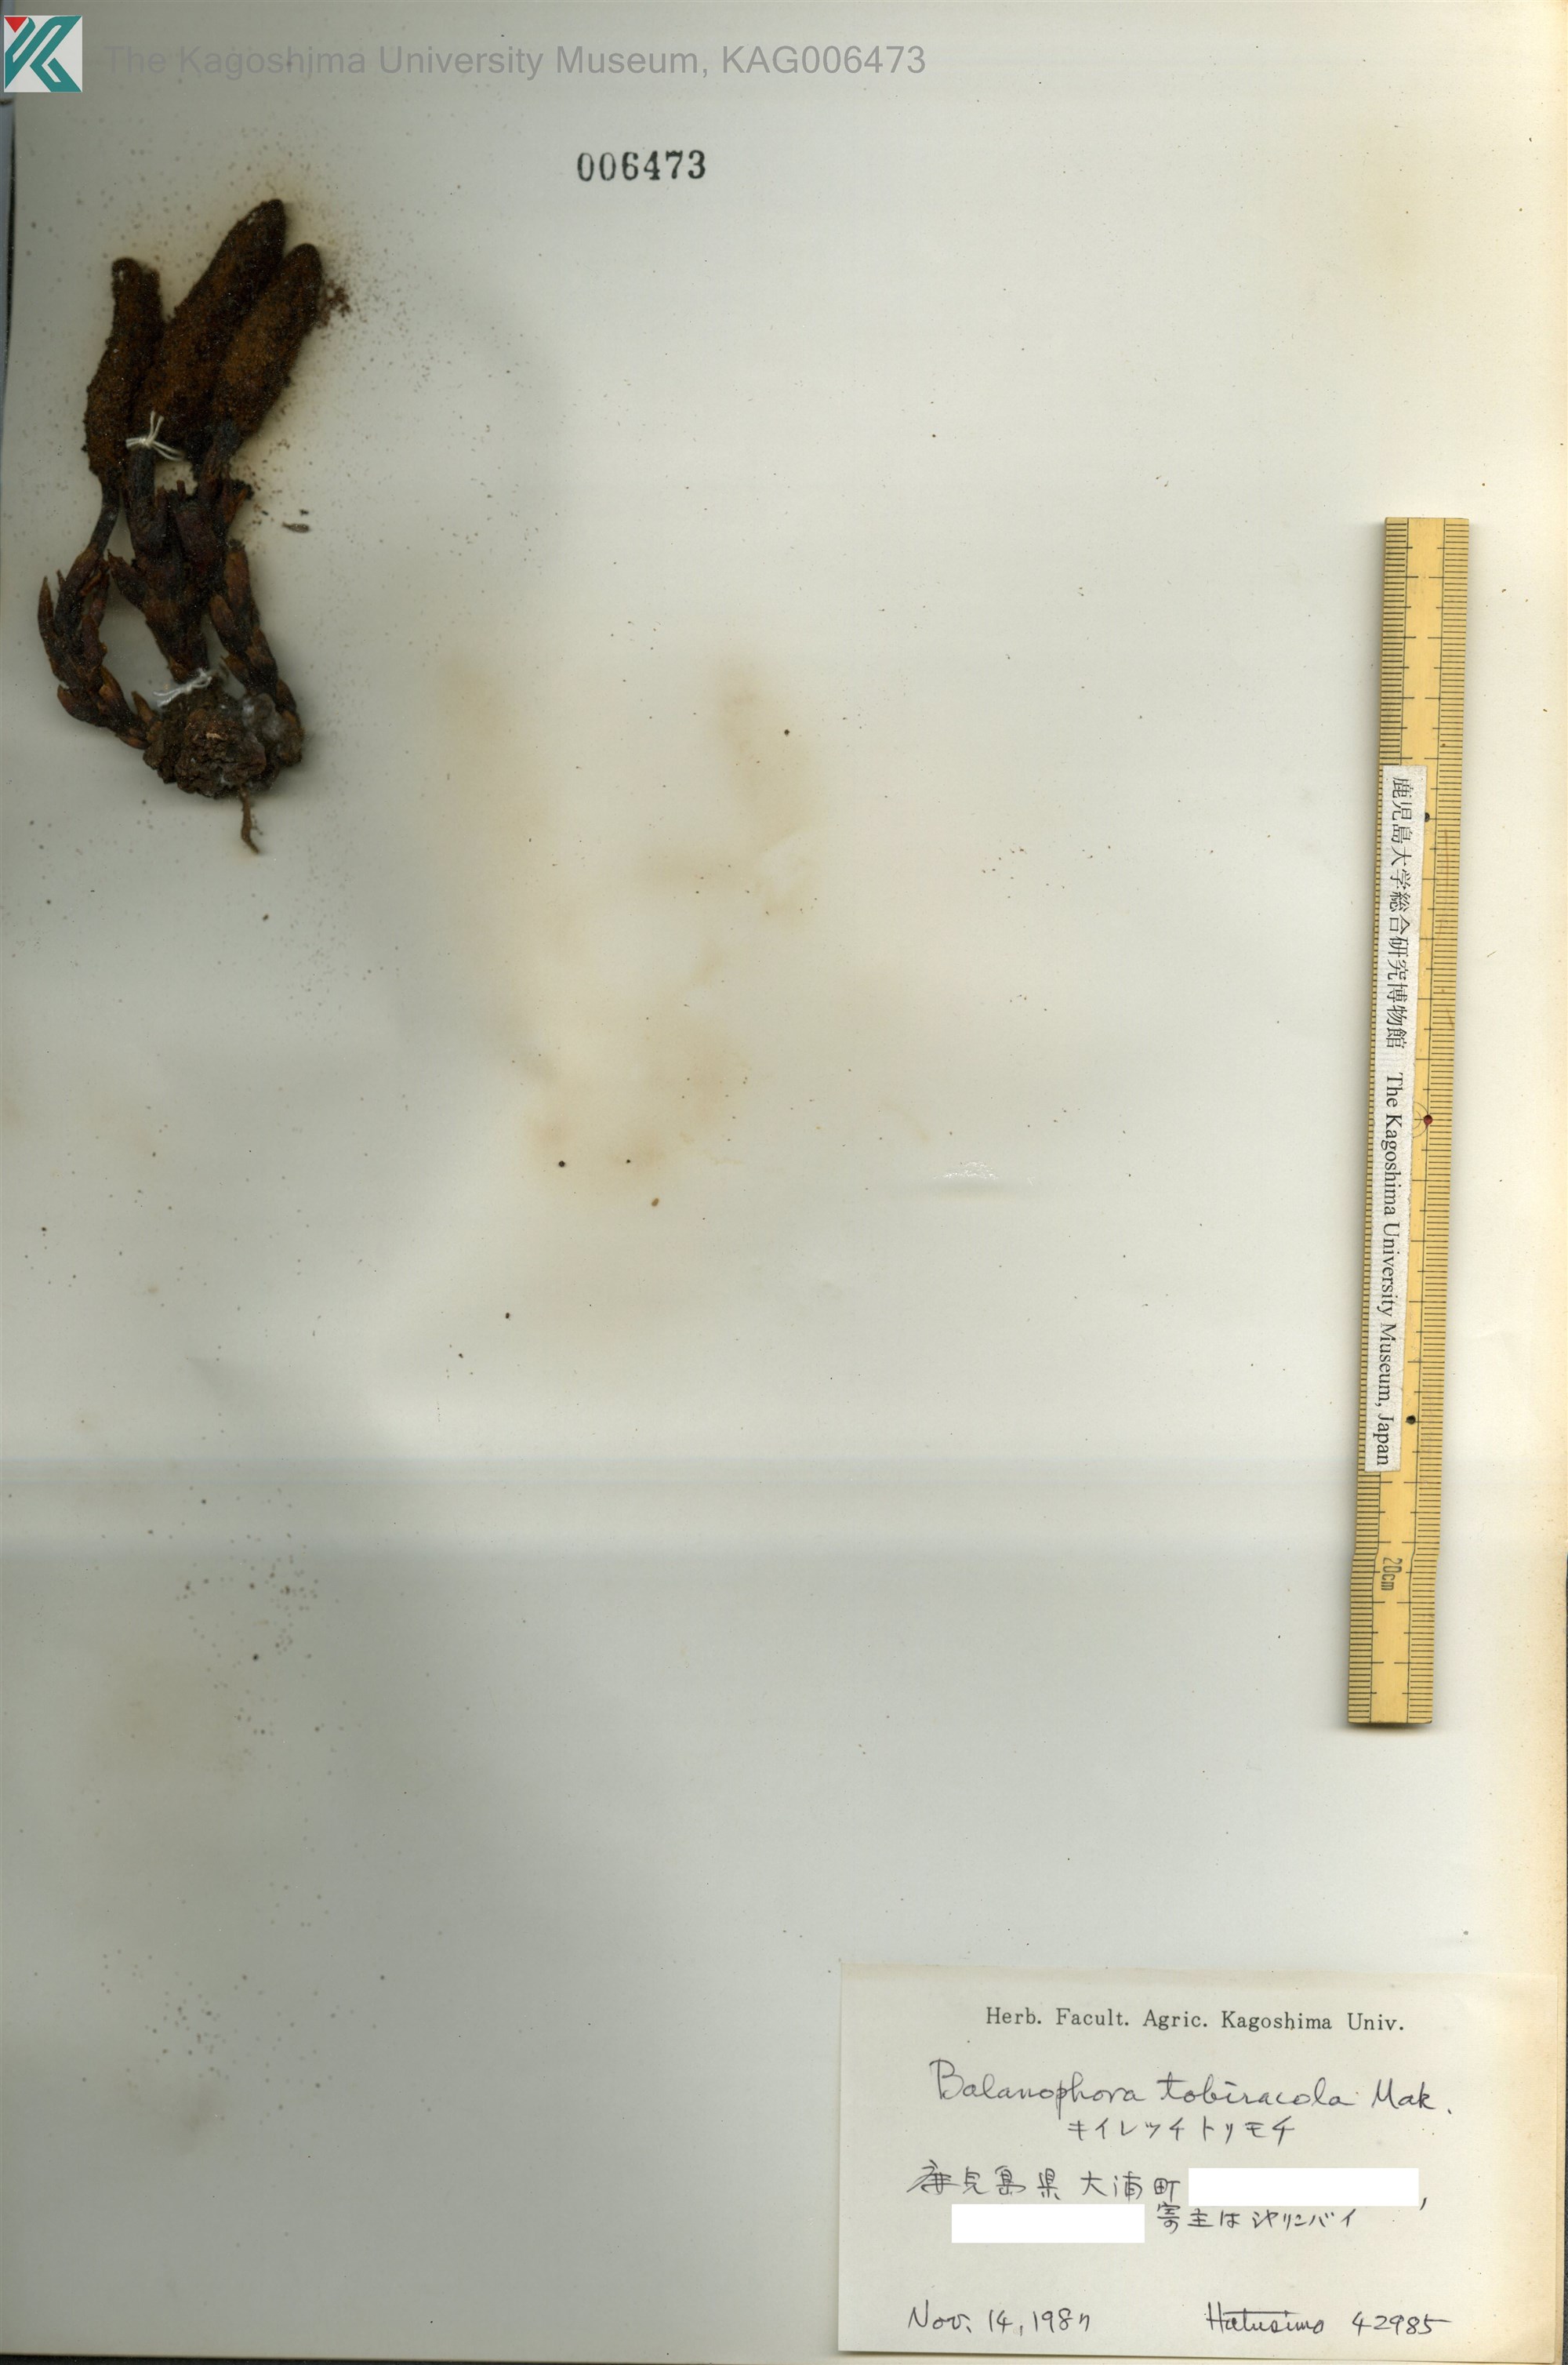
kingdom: Plantae
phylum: Tracheophyta
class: Magnoliopsida
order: Santalales
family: Balanophoraceae
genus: Balanophora
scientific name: Balanophora tobiracola
